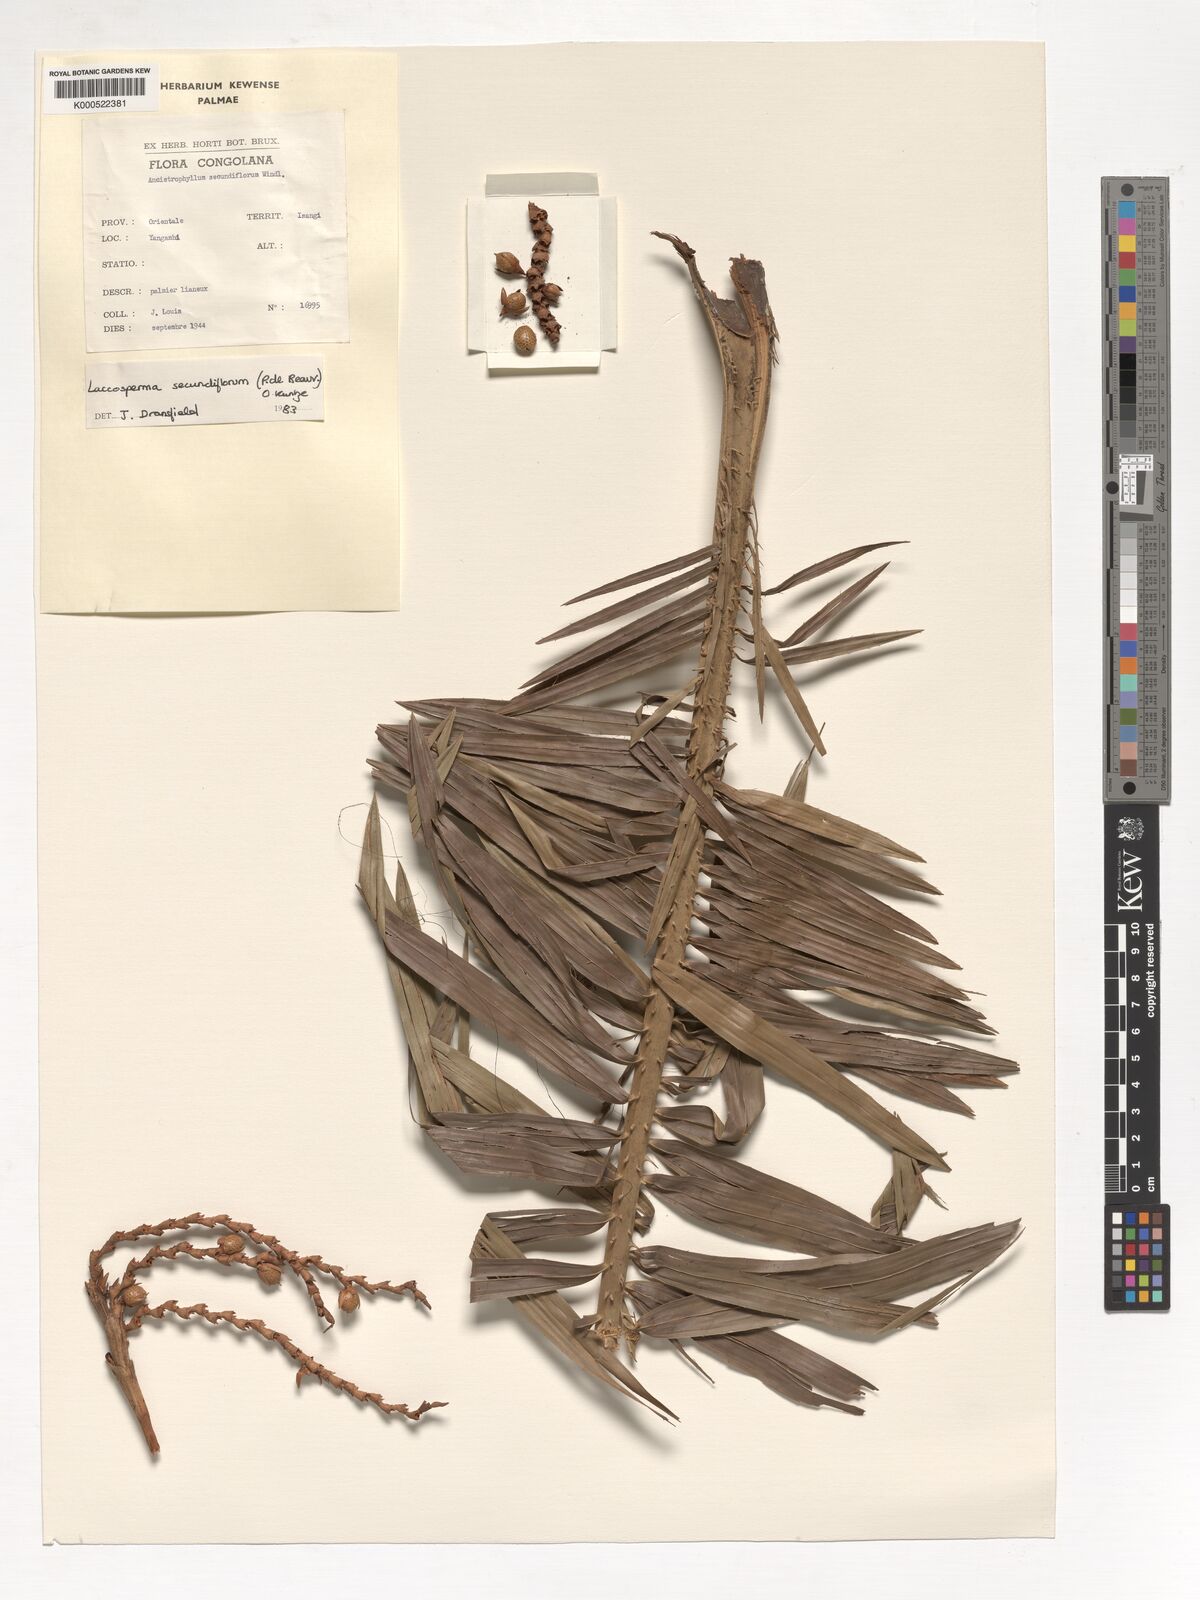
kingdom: Plantae
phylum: Tracheophyta
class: Liliopsida
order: Arecales
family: Arecaceae
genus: Laccosperma
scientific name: Laccosperma secundiflorum
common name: Rattan
